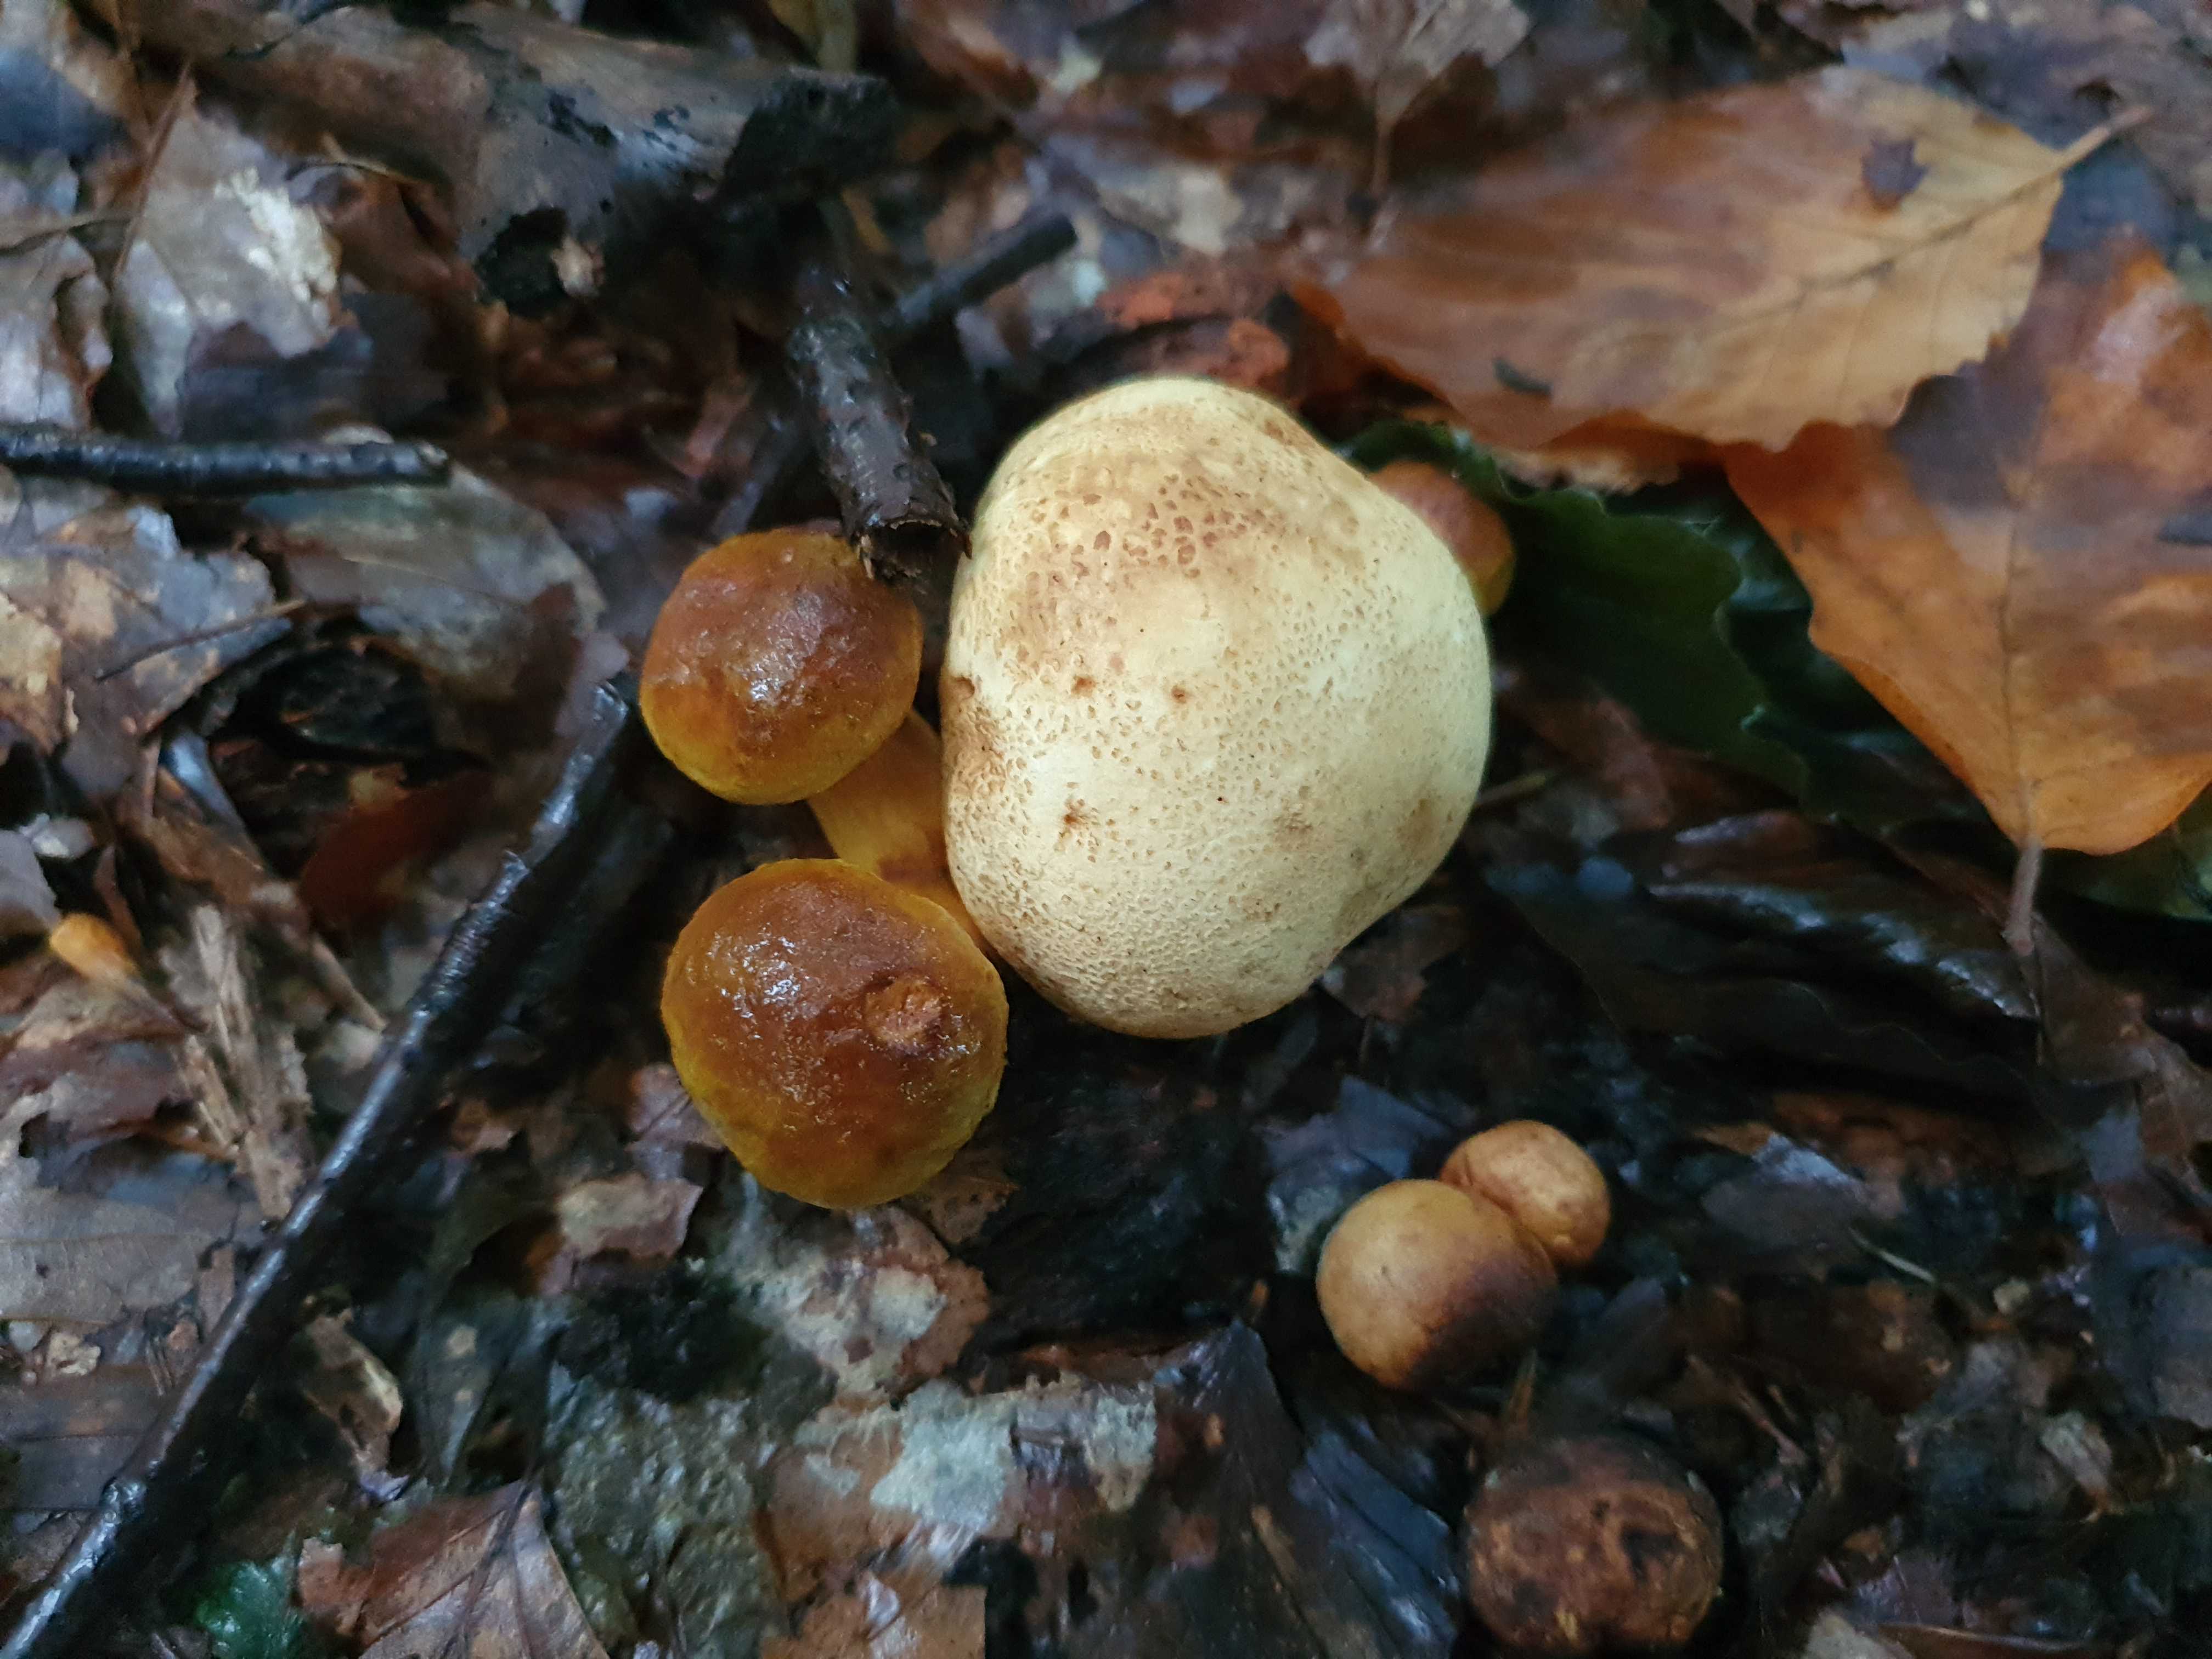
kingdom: Fungi
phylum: Basidiomycota
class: Agaricomycetes
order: Boletales
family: Boletaceae
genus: Pseudoboletus
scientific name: Pseudoboletus parasiticus
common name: snyltende rørhat
